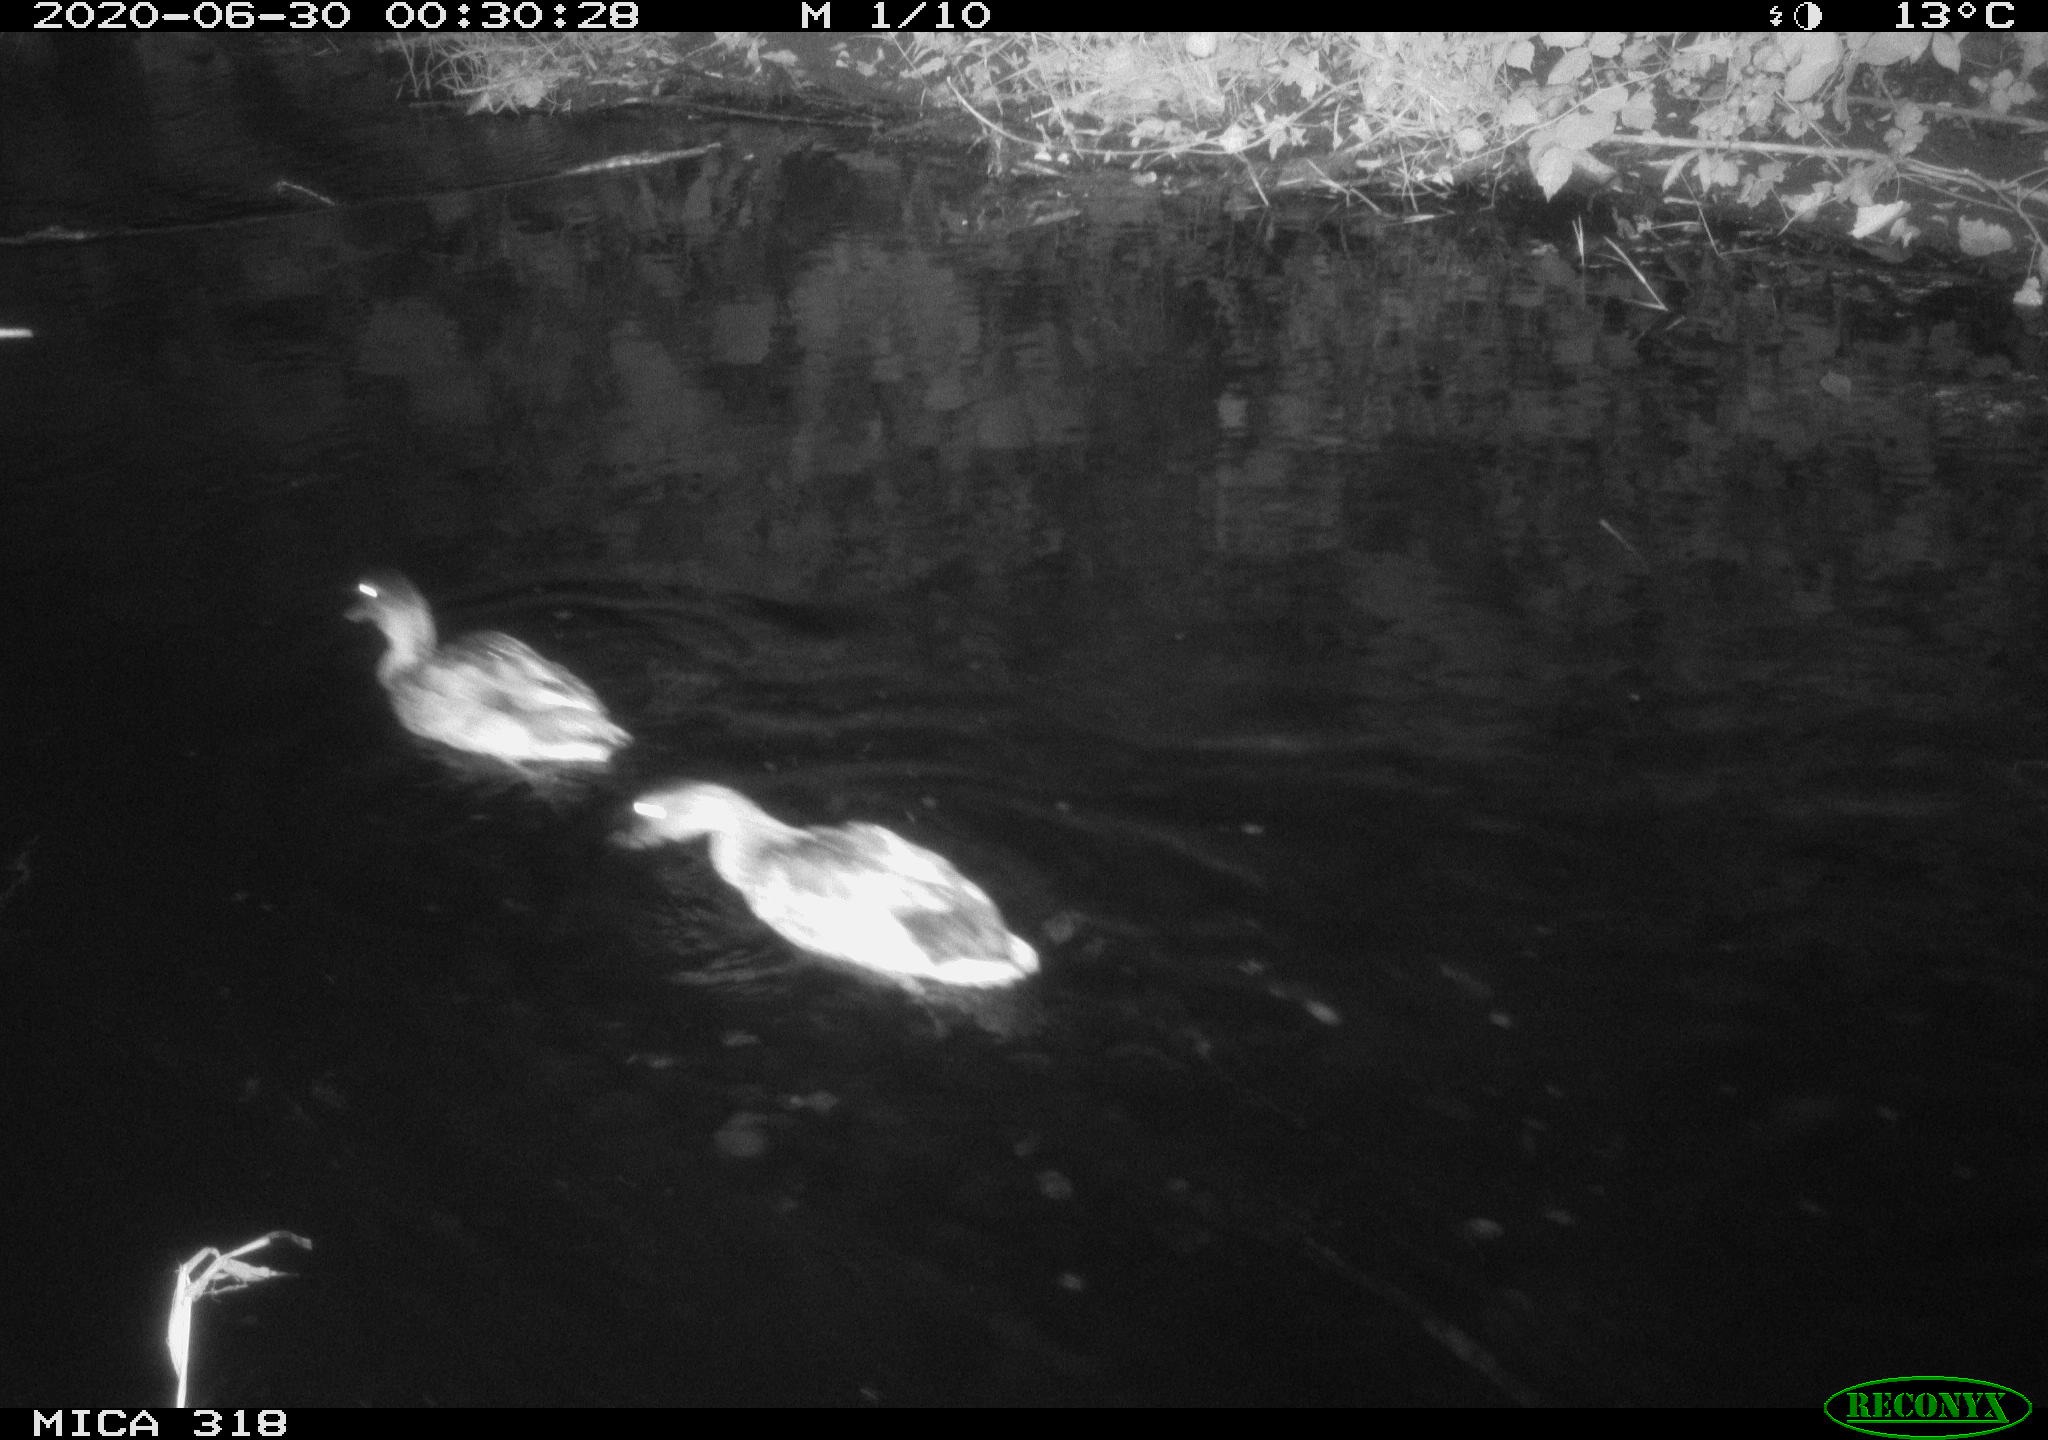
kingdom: Animalia
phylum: Chordata
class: Aves
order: Anseriformes
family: Anatidae
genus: Anas
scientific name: Anas platyrhynchos
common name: Mallard
